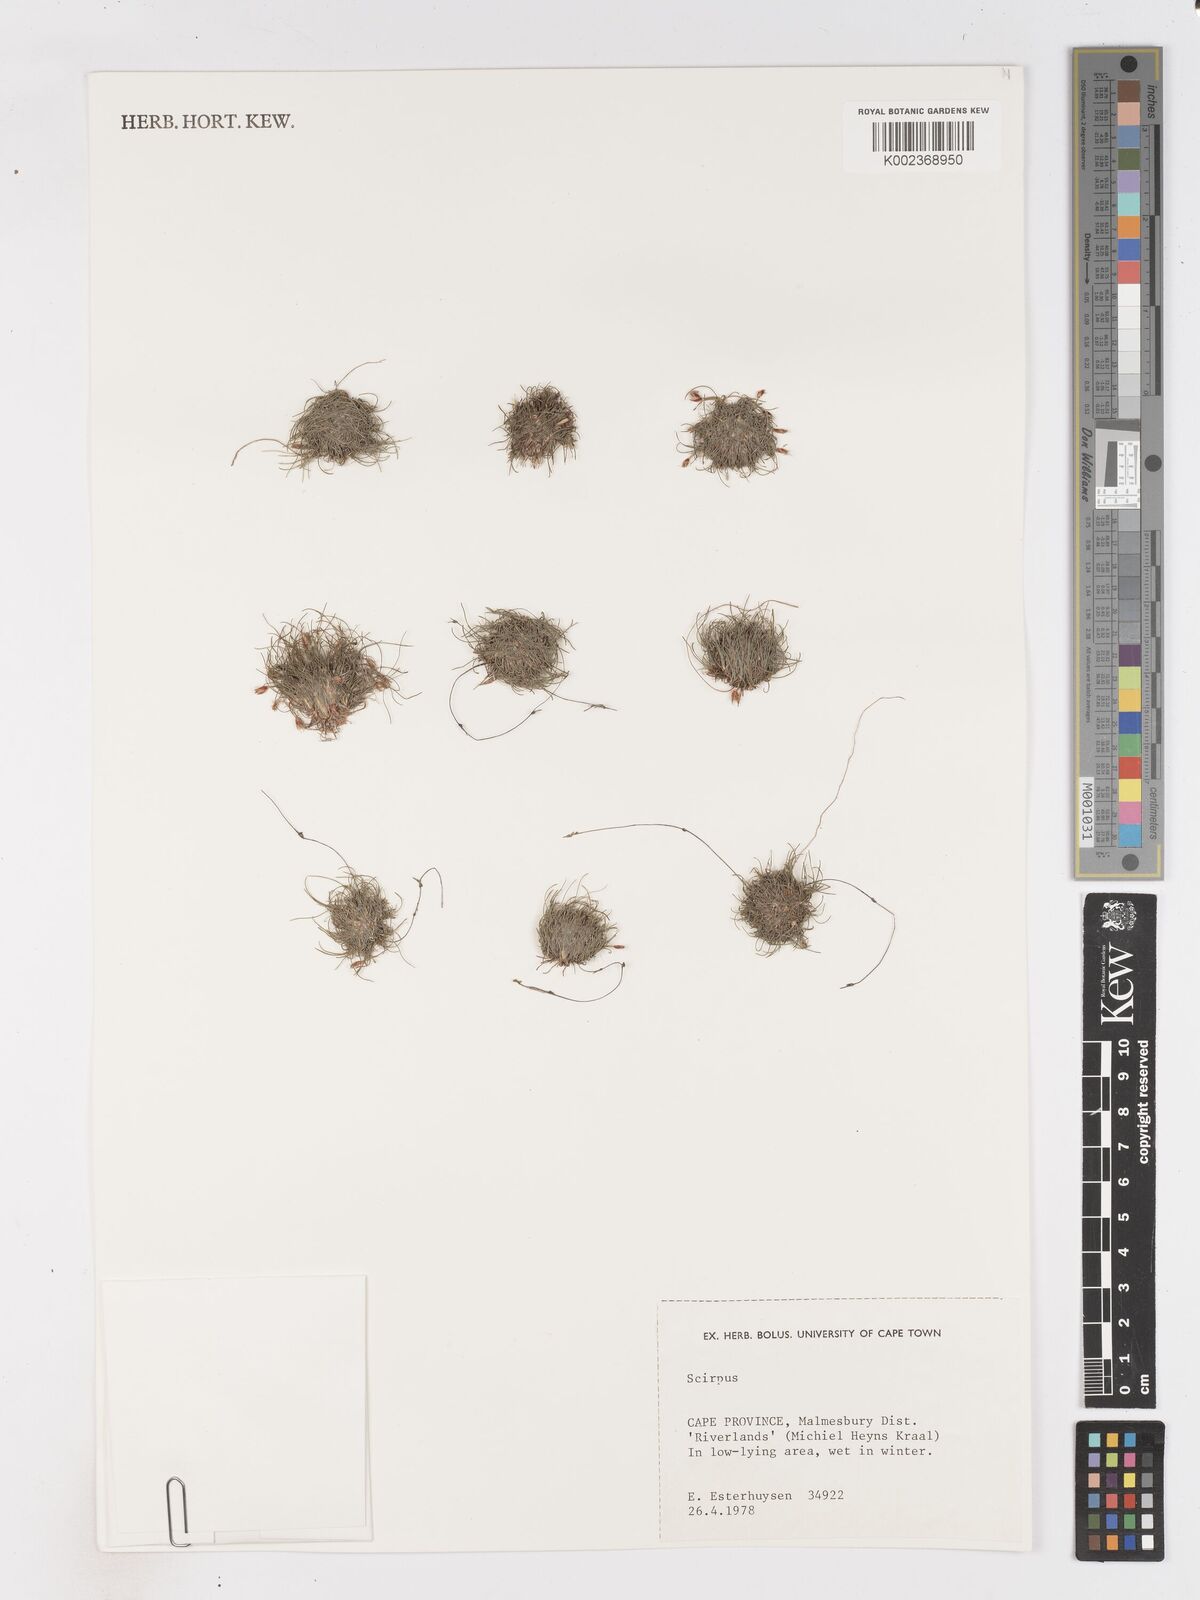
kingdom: Plantae
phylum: Tracheophyta
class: Liliopsida
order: Poales
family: Cyperaceae
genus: Isolepis
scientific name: Isolepis rubicunda
